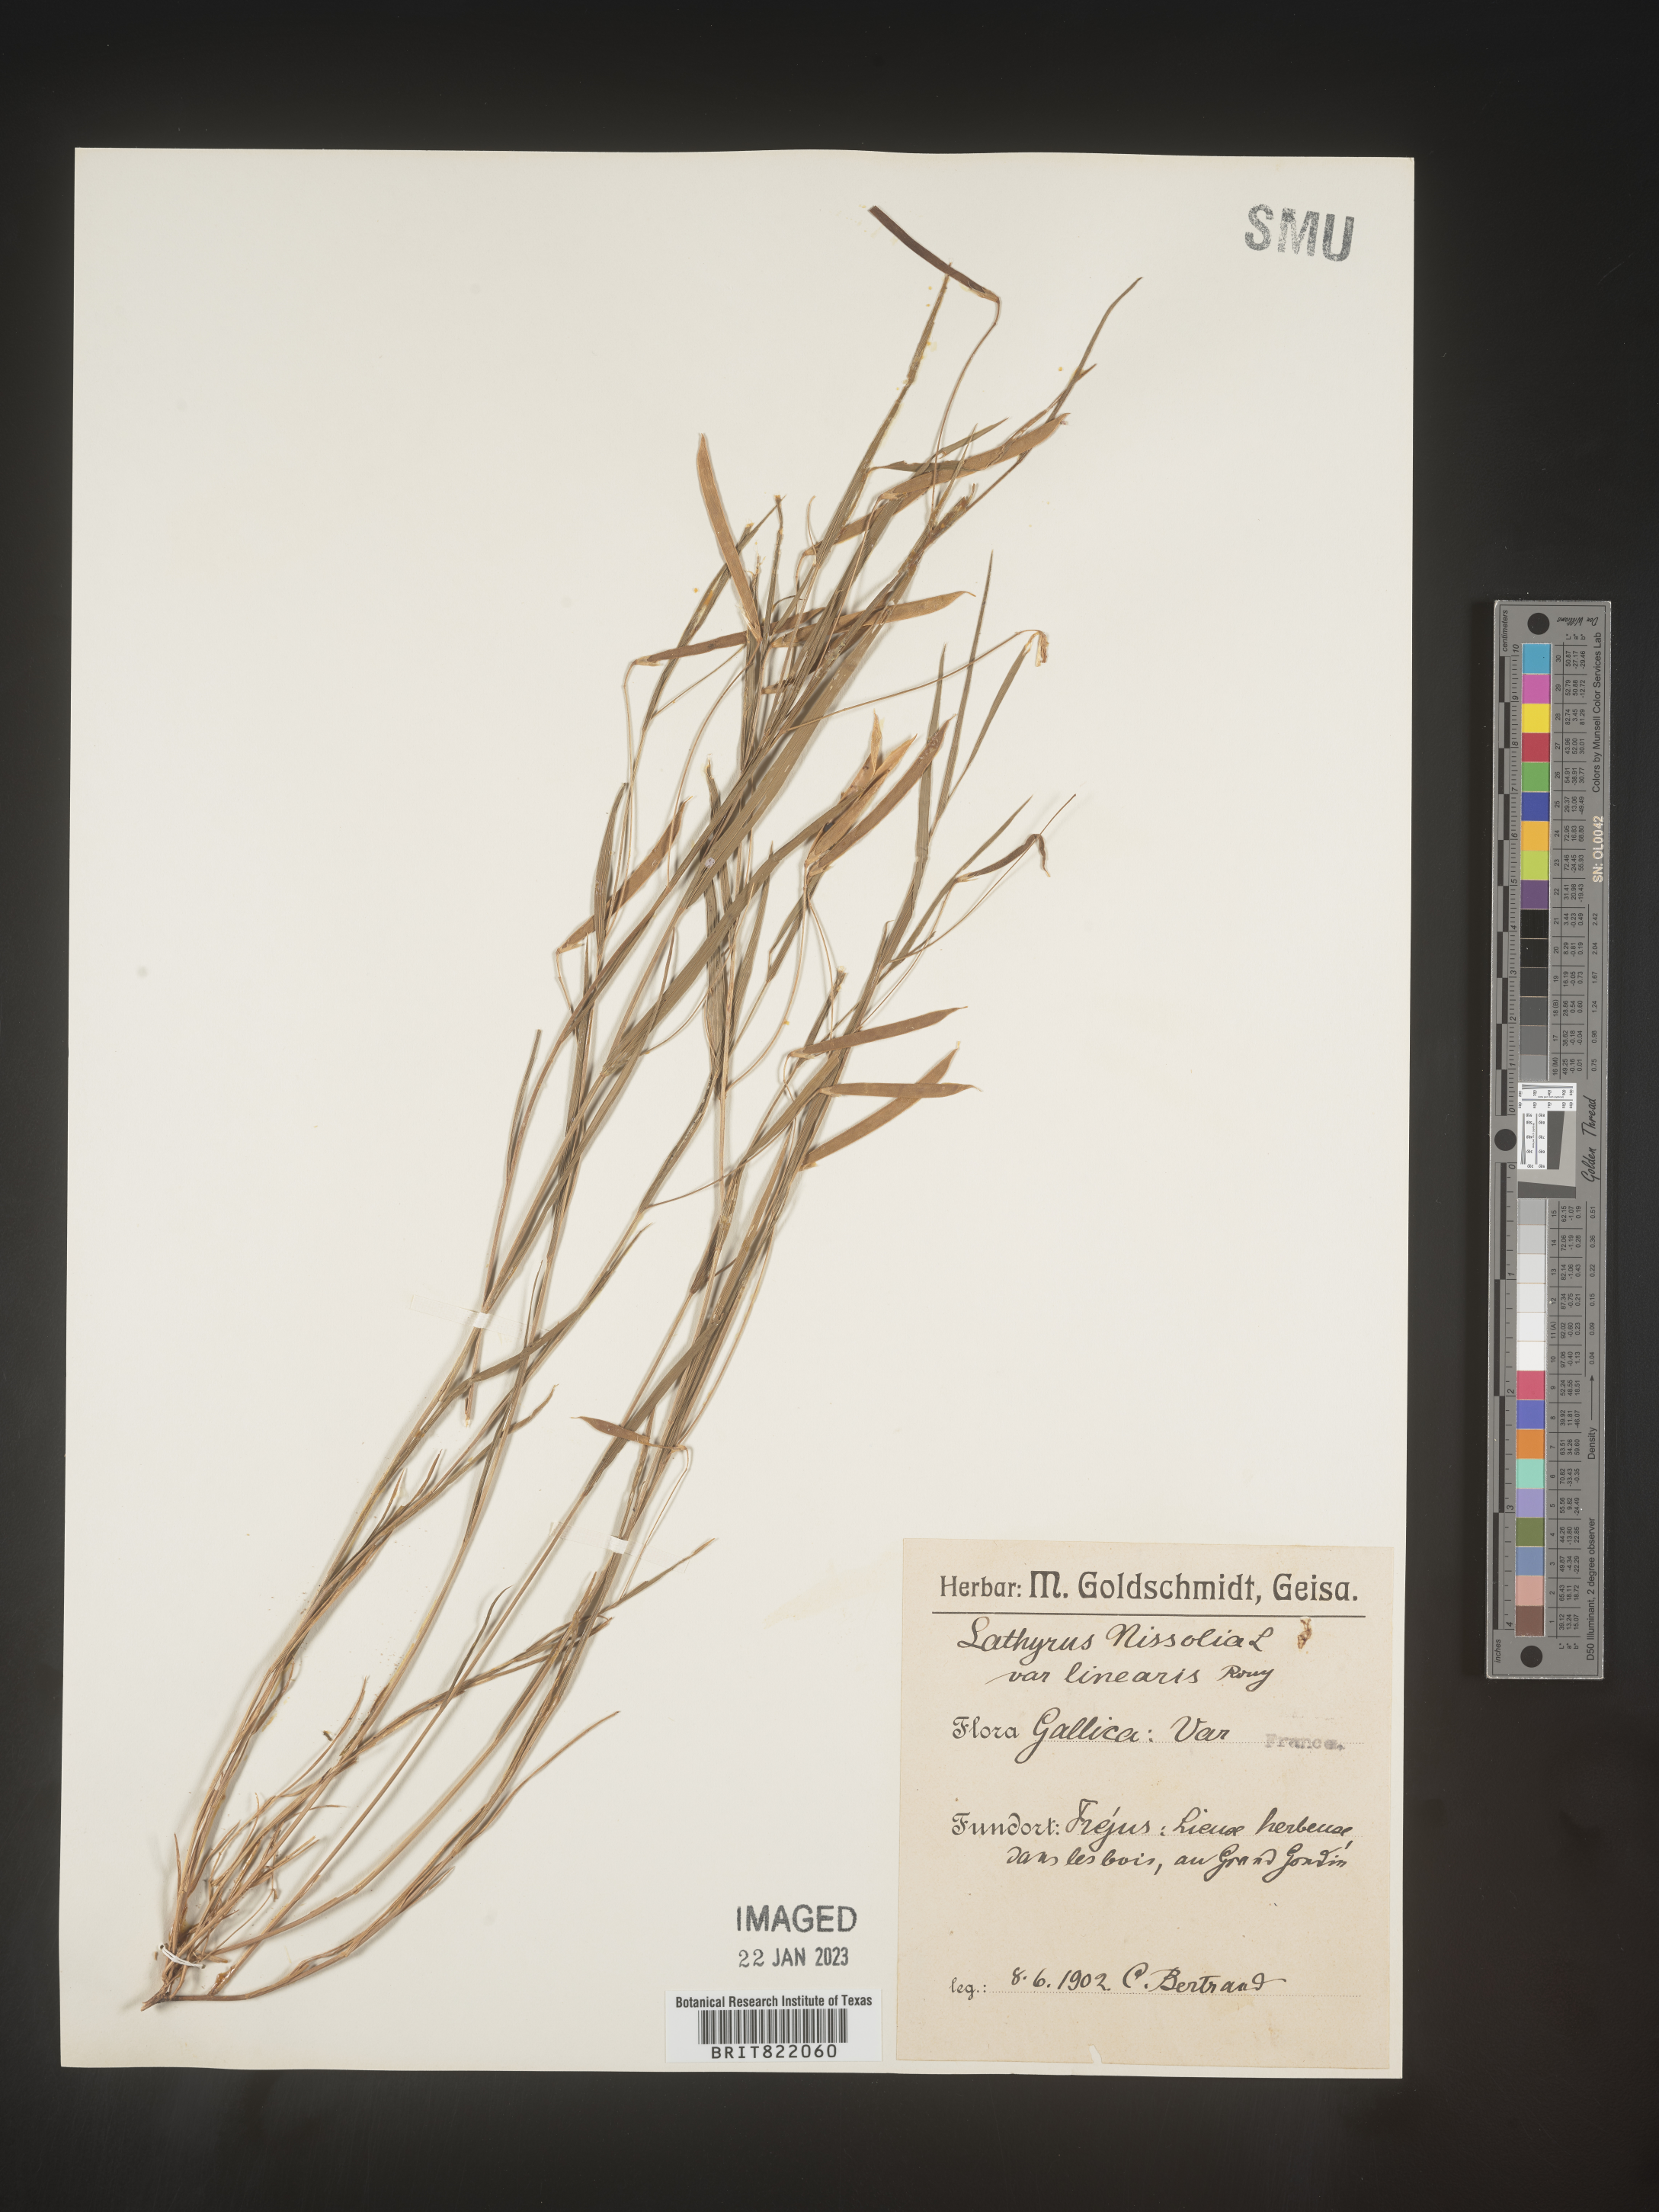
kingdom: Plantae
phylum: Tracheophyta
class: Magnoliopsida
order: Fabales
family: Fabaceae
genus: Lathyrus
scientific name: Lathyrus
